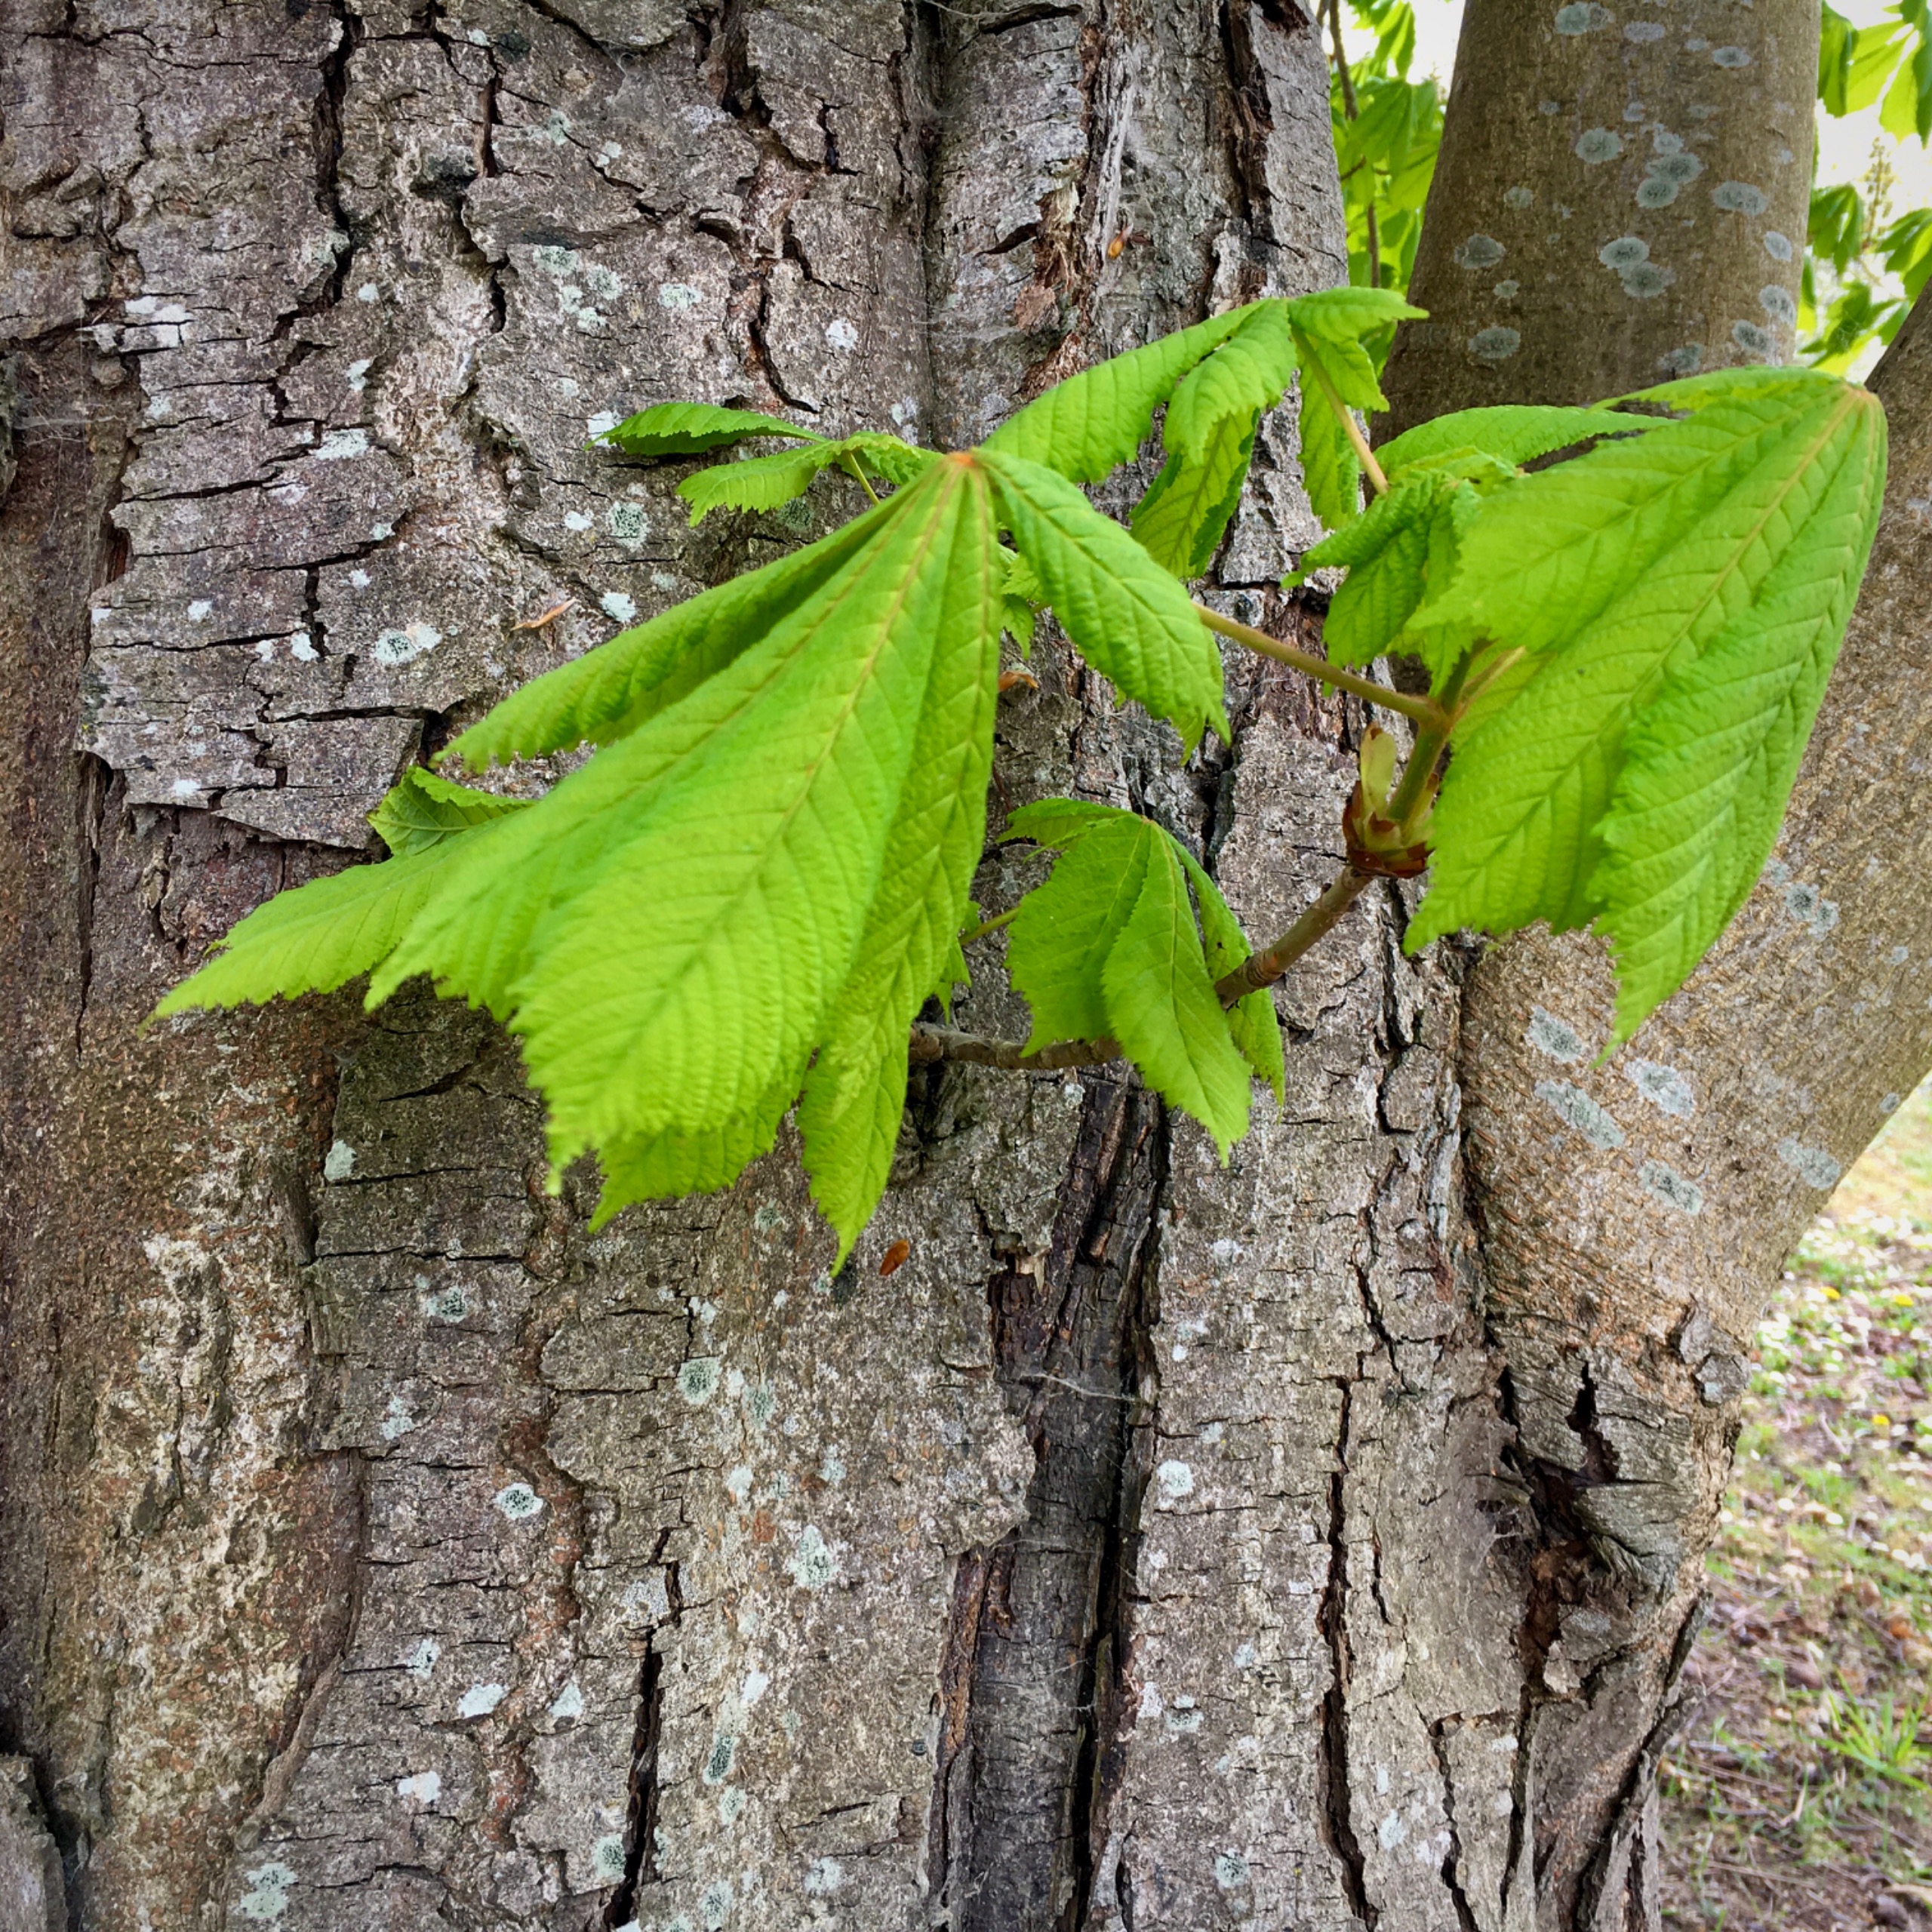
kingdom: Plantae
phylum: Tracheophyta
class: Magnoliopsida
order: Sapindales
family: Sapindaceae
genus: Aesculus
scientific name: Aesculus hippocastanum
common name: Hestekastanie
